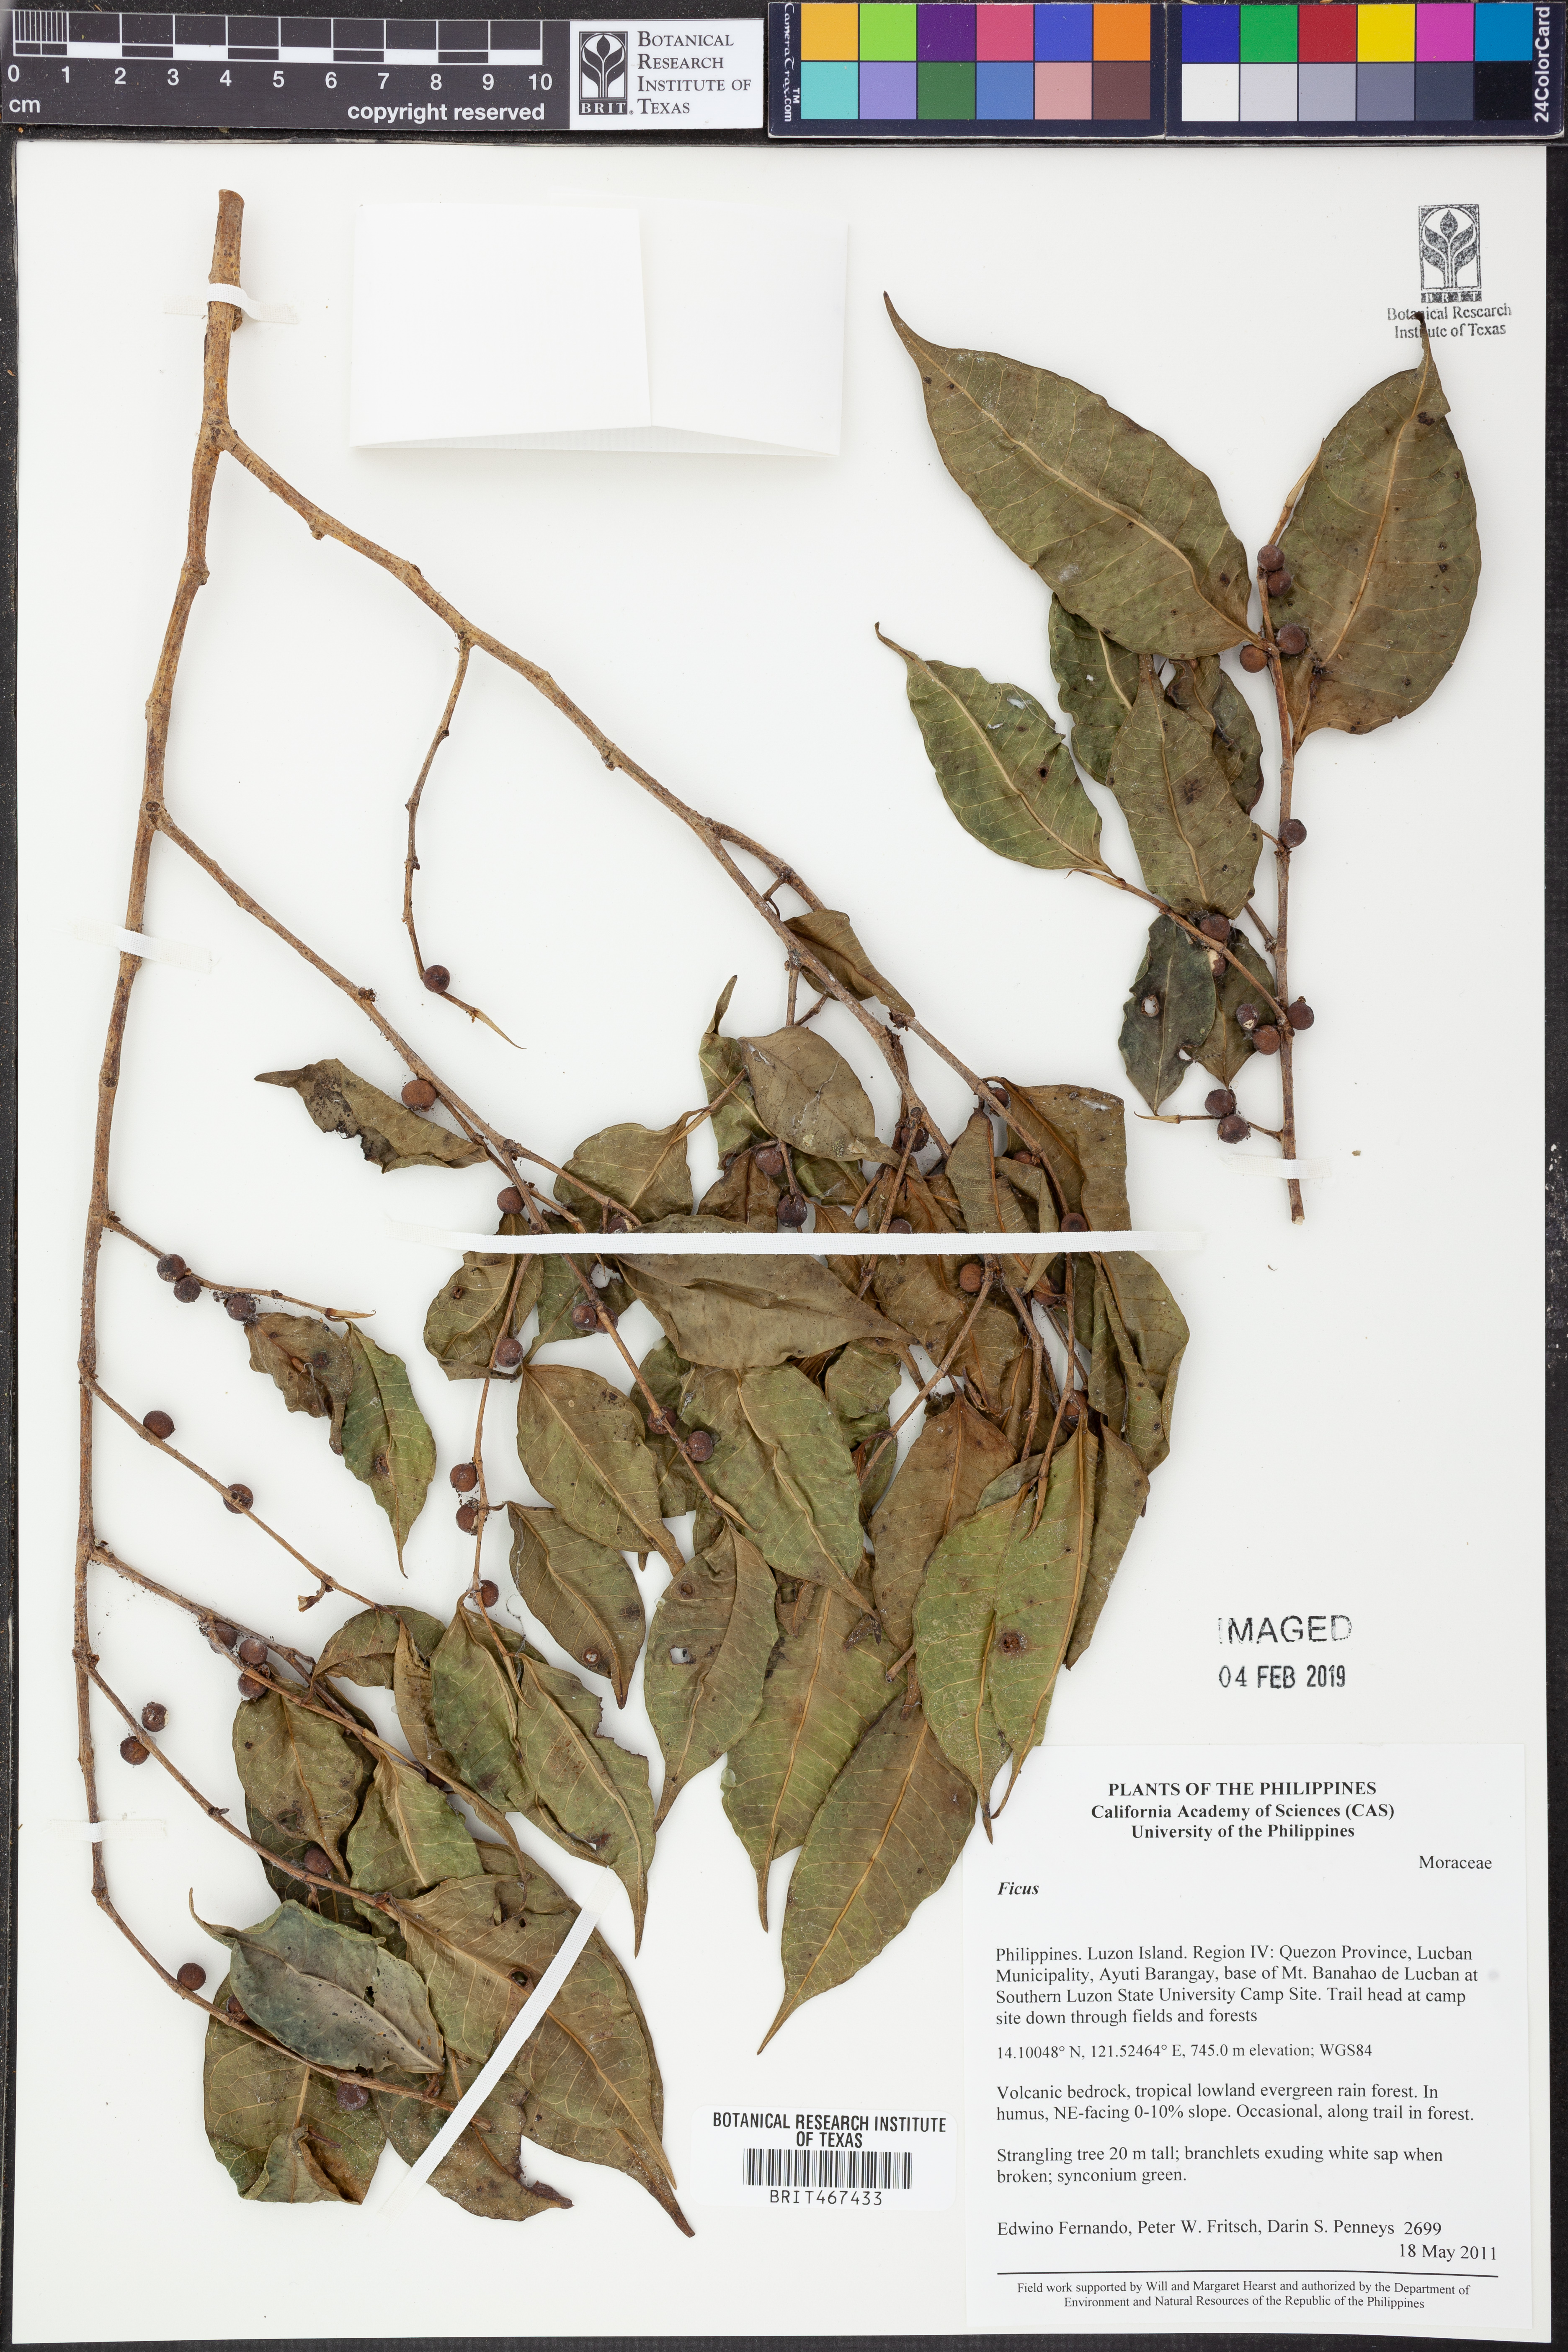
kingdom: Plantae
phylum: Tracheophyta
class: Magnoliopsida
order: Rosales
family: Moraceae
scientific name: Moraceae
